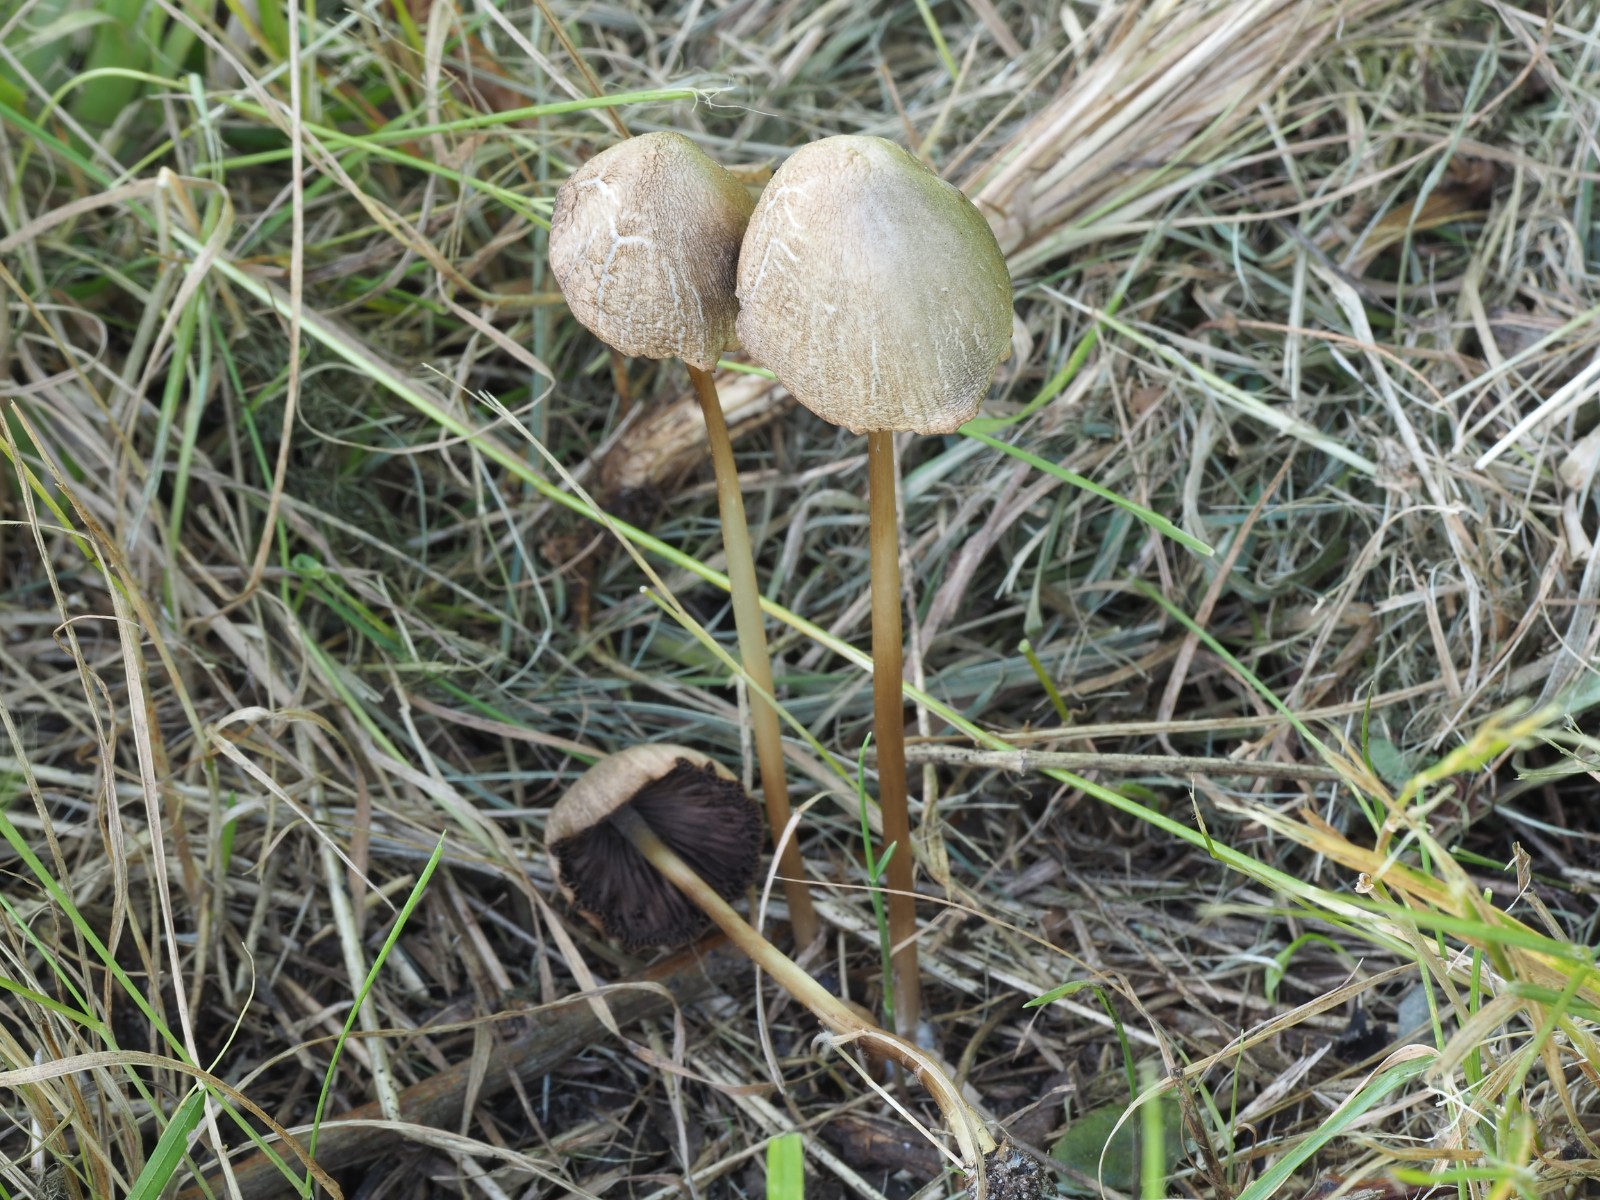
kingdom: Fungi
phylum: Basidiomycota
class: Agaricomycetes
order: Agaricales
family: Bolbitiaceae
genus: Panaeolus
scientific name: Panaeolus papilionaceus
